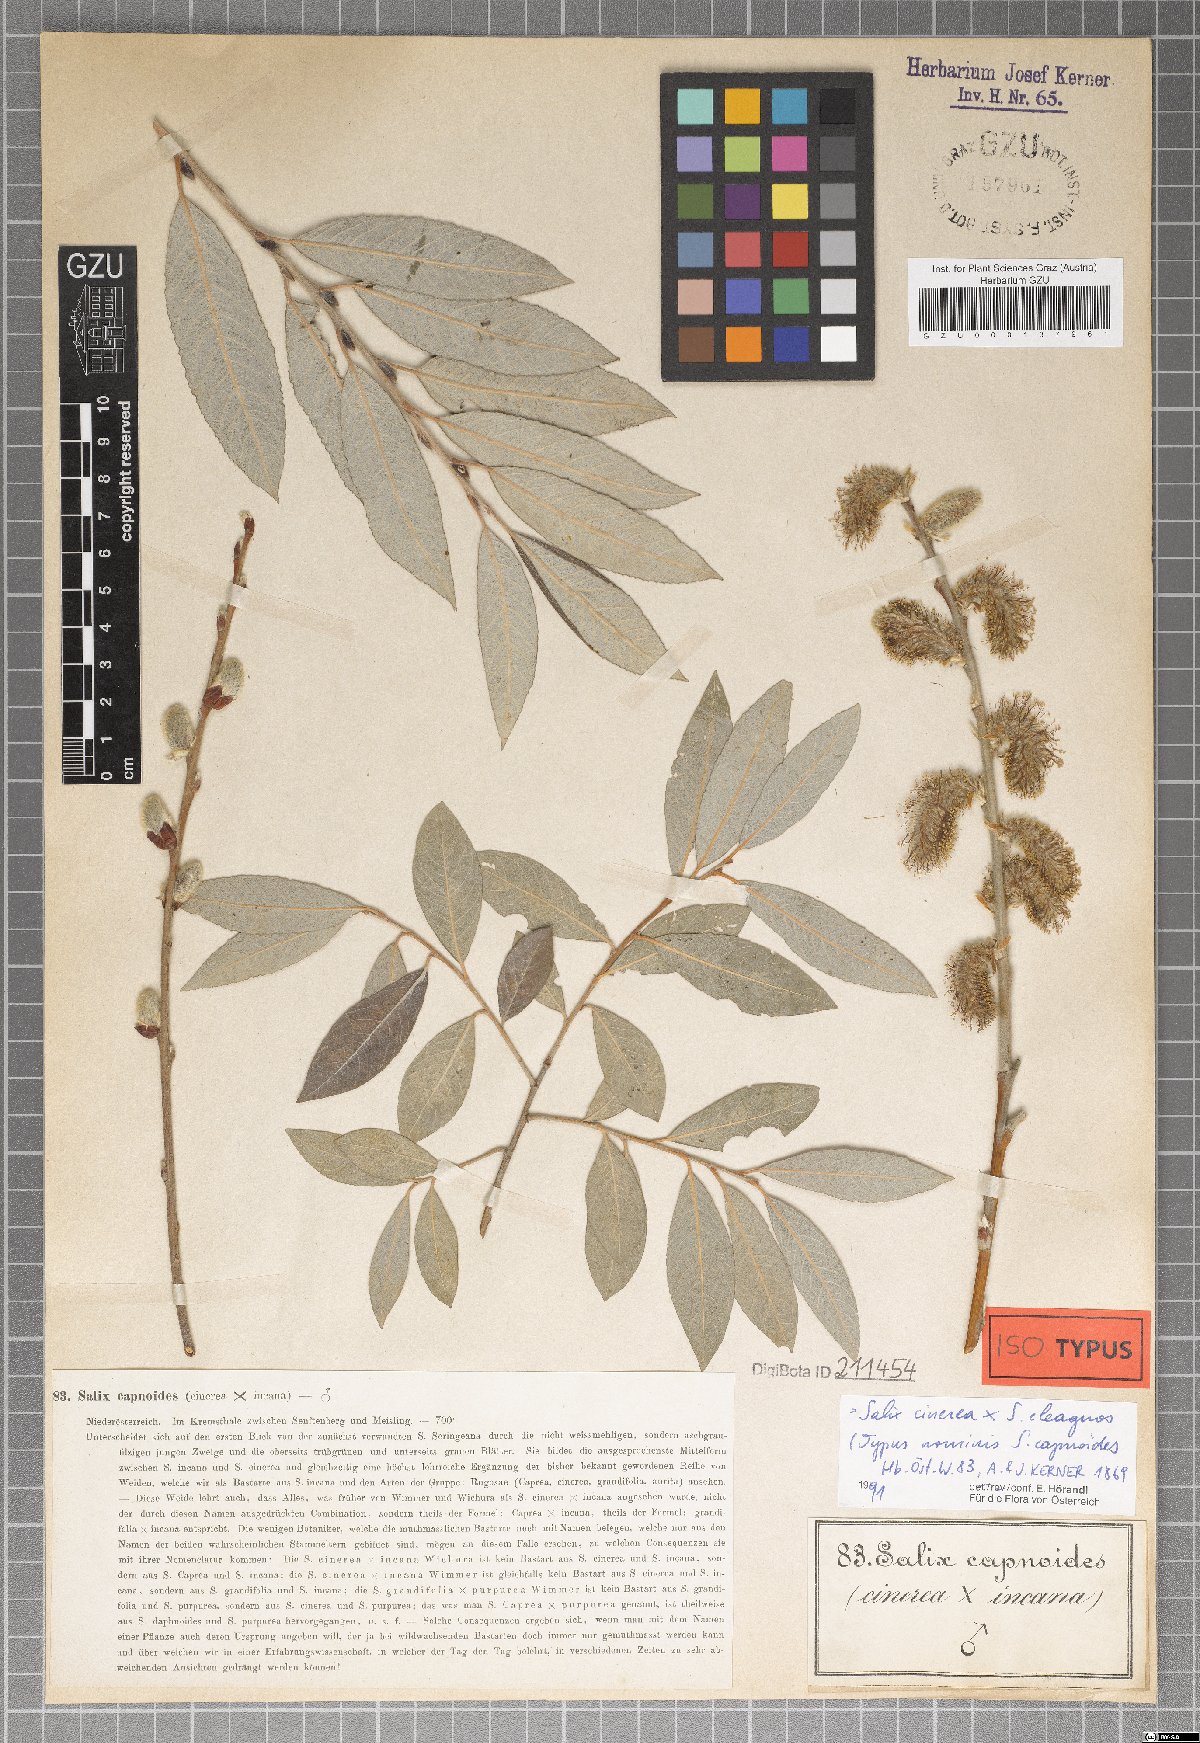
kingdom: Plantae
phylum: Tracheophyta
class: Magnoliopsida
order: Malpighiales
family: Salicaceae
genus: Salix
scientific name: Salix eleagnos
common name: Elaeagnus willow
